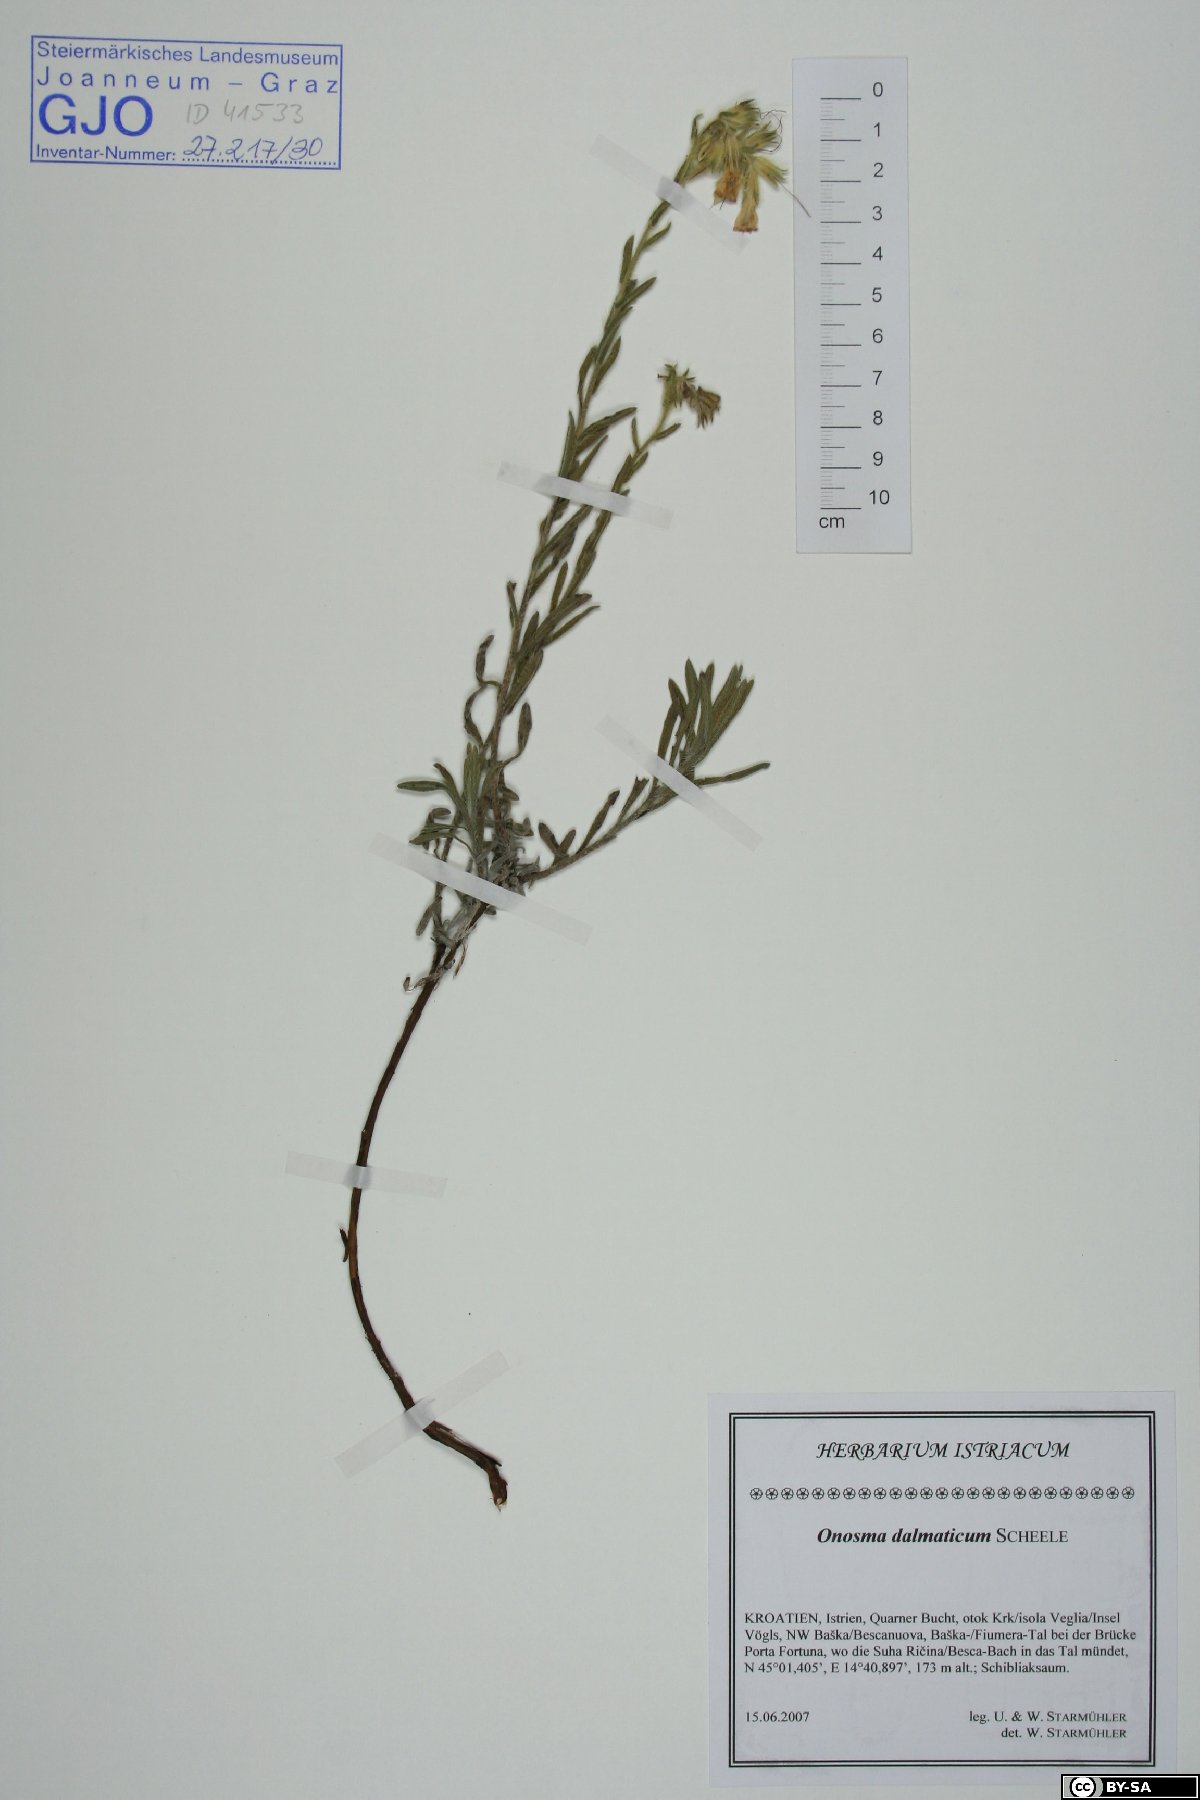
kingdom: Plantae
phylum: Tracheophyta
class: Magnoliopsida
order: Boraginales
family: Boraginaceae
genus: Onosma
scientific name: Onosma echioides
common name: Goldendrop
